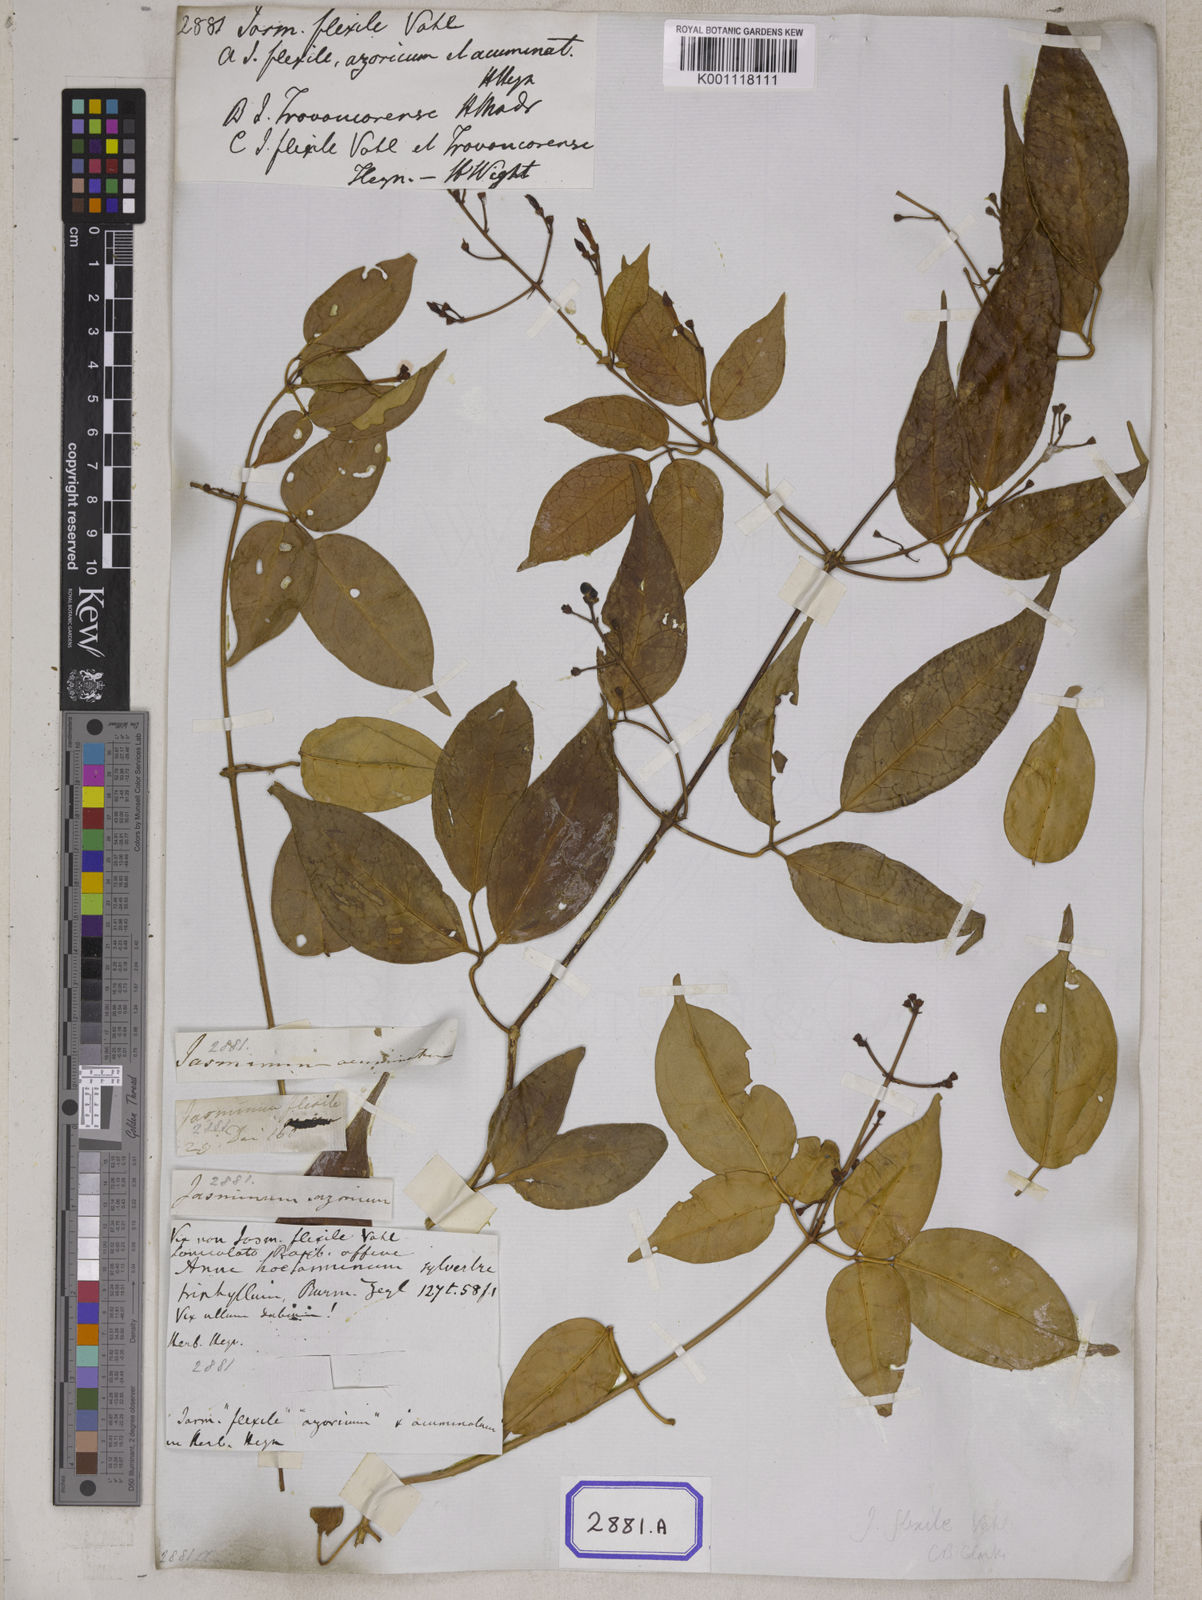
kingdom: Plantae
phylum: Tracheophyta
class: Magnoliopsida
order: Lamiales
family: Oleaceae
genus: Jasminum
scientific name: Jasminum flexile
